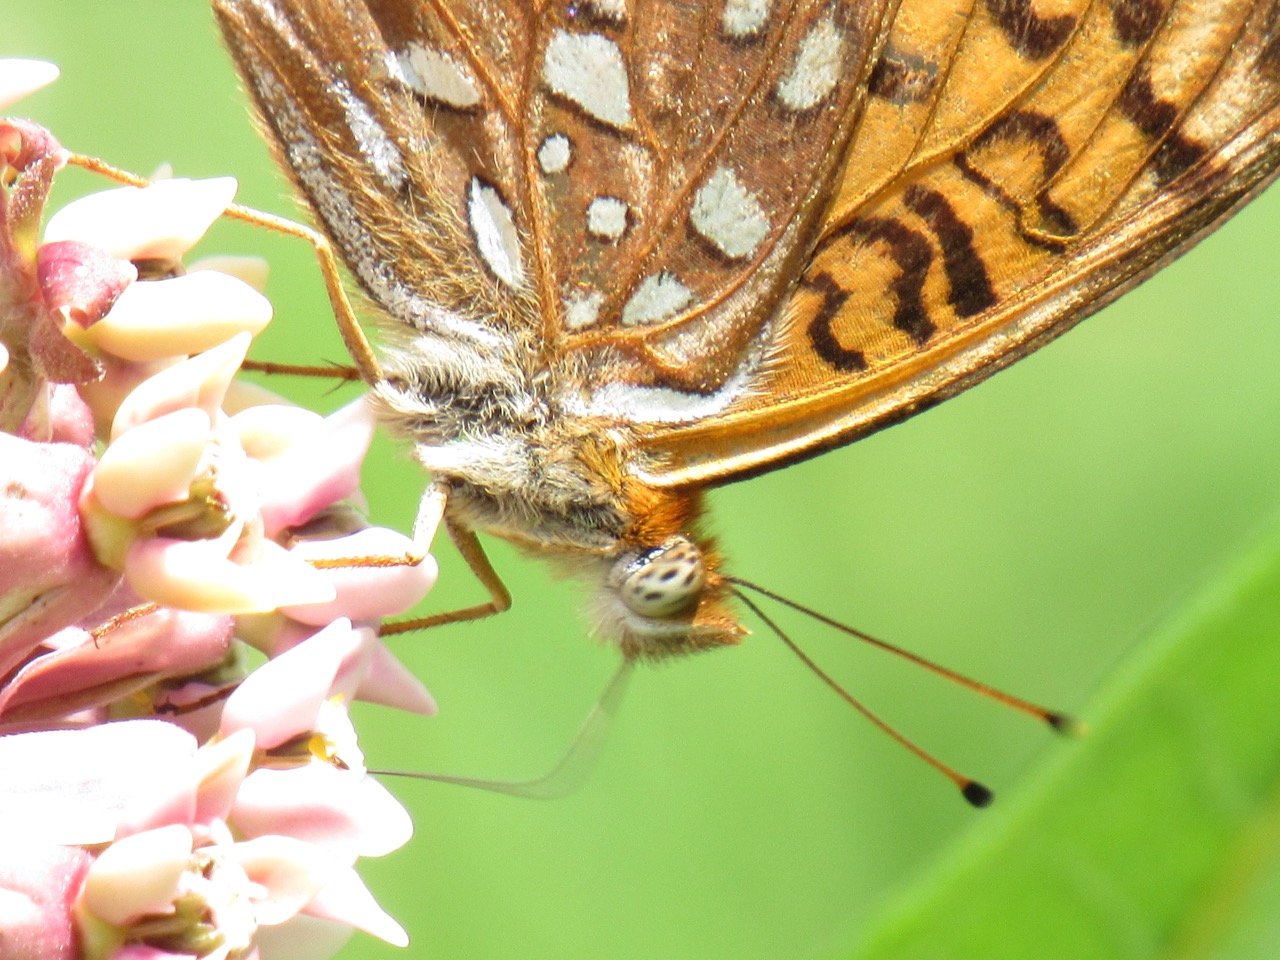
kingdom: Animalia
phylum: Arthropoda
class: Insecta
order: Lepidoptera
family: Nymphalidae
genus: Speyeria
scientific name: Speyeria atlantis
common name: Atlantis Fritillary
